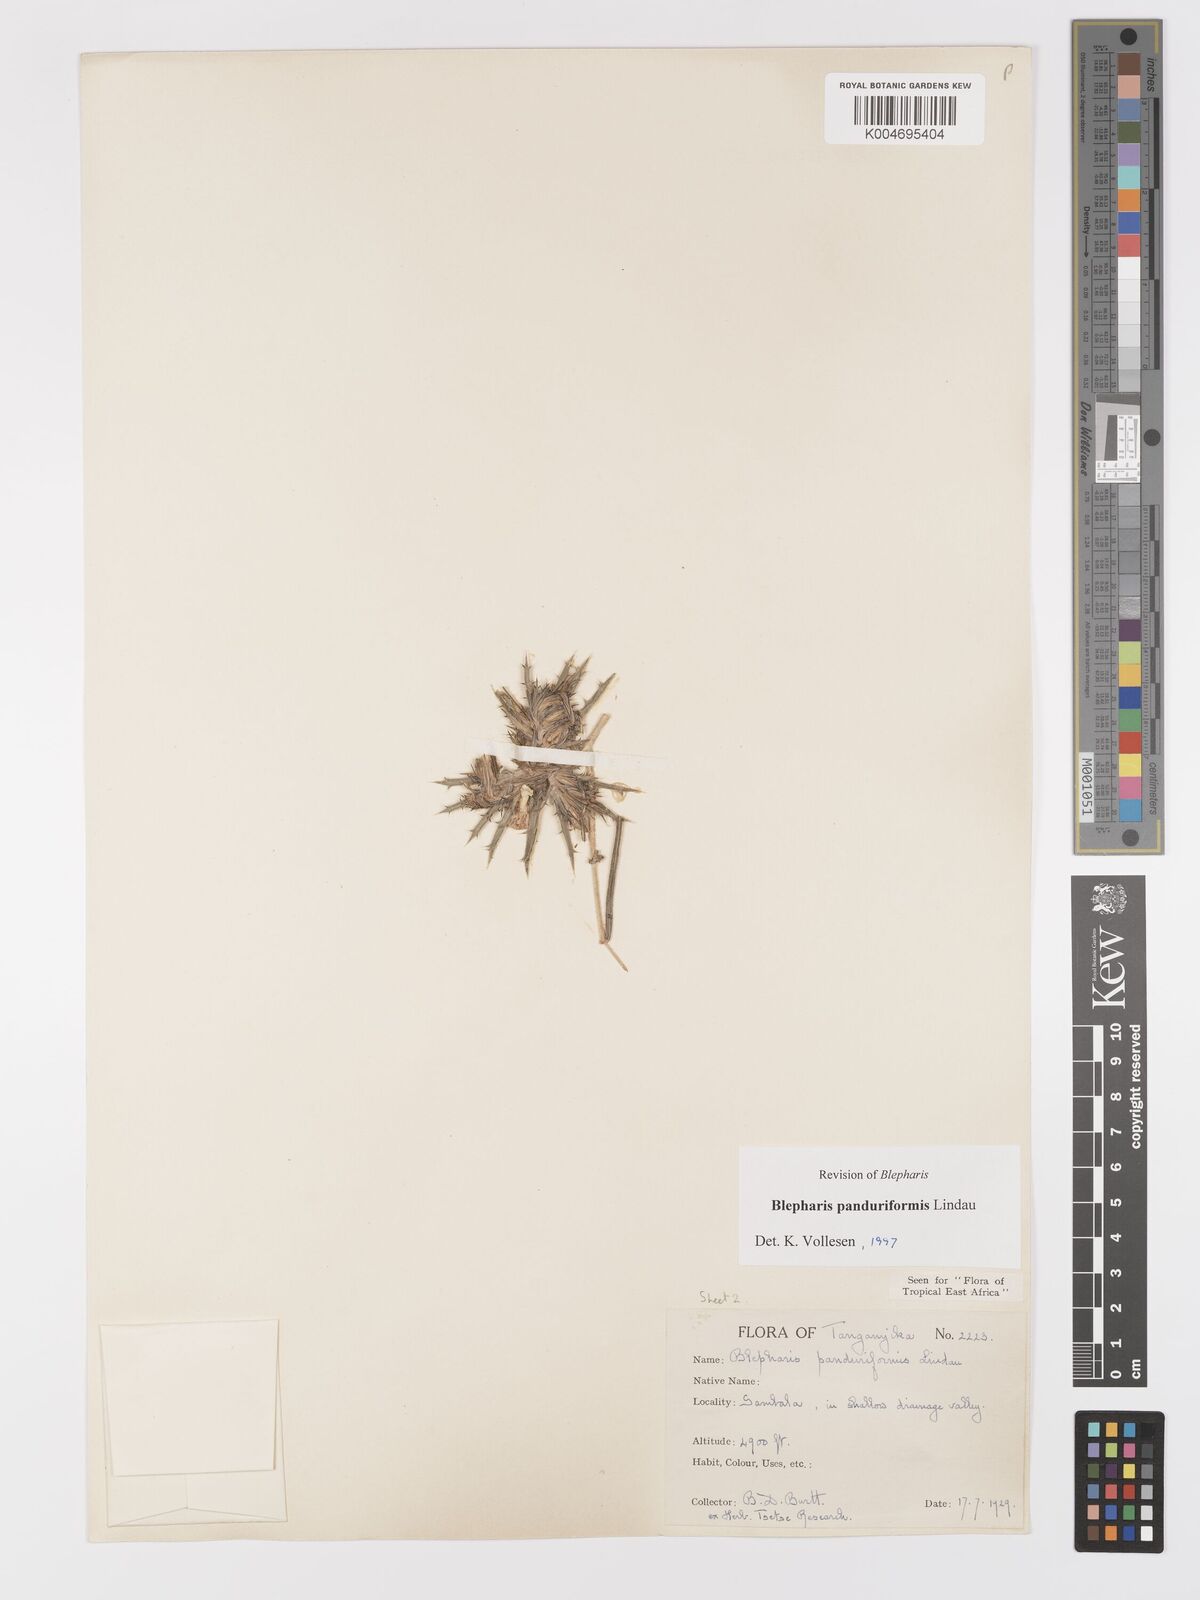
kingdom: Plantae
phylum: Tracheophyta
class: Magnoliopsida
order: Lamiales
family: Acanthaceae
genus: Blepharis
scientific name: Blepharis panduriformis
